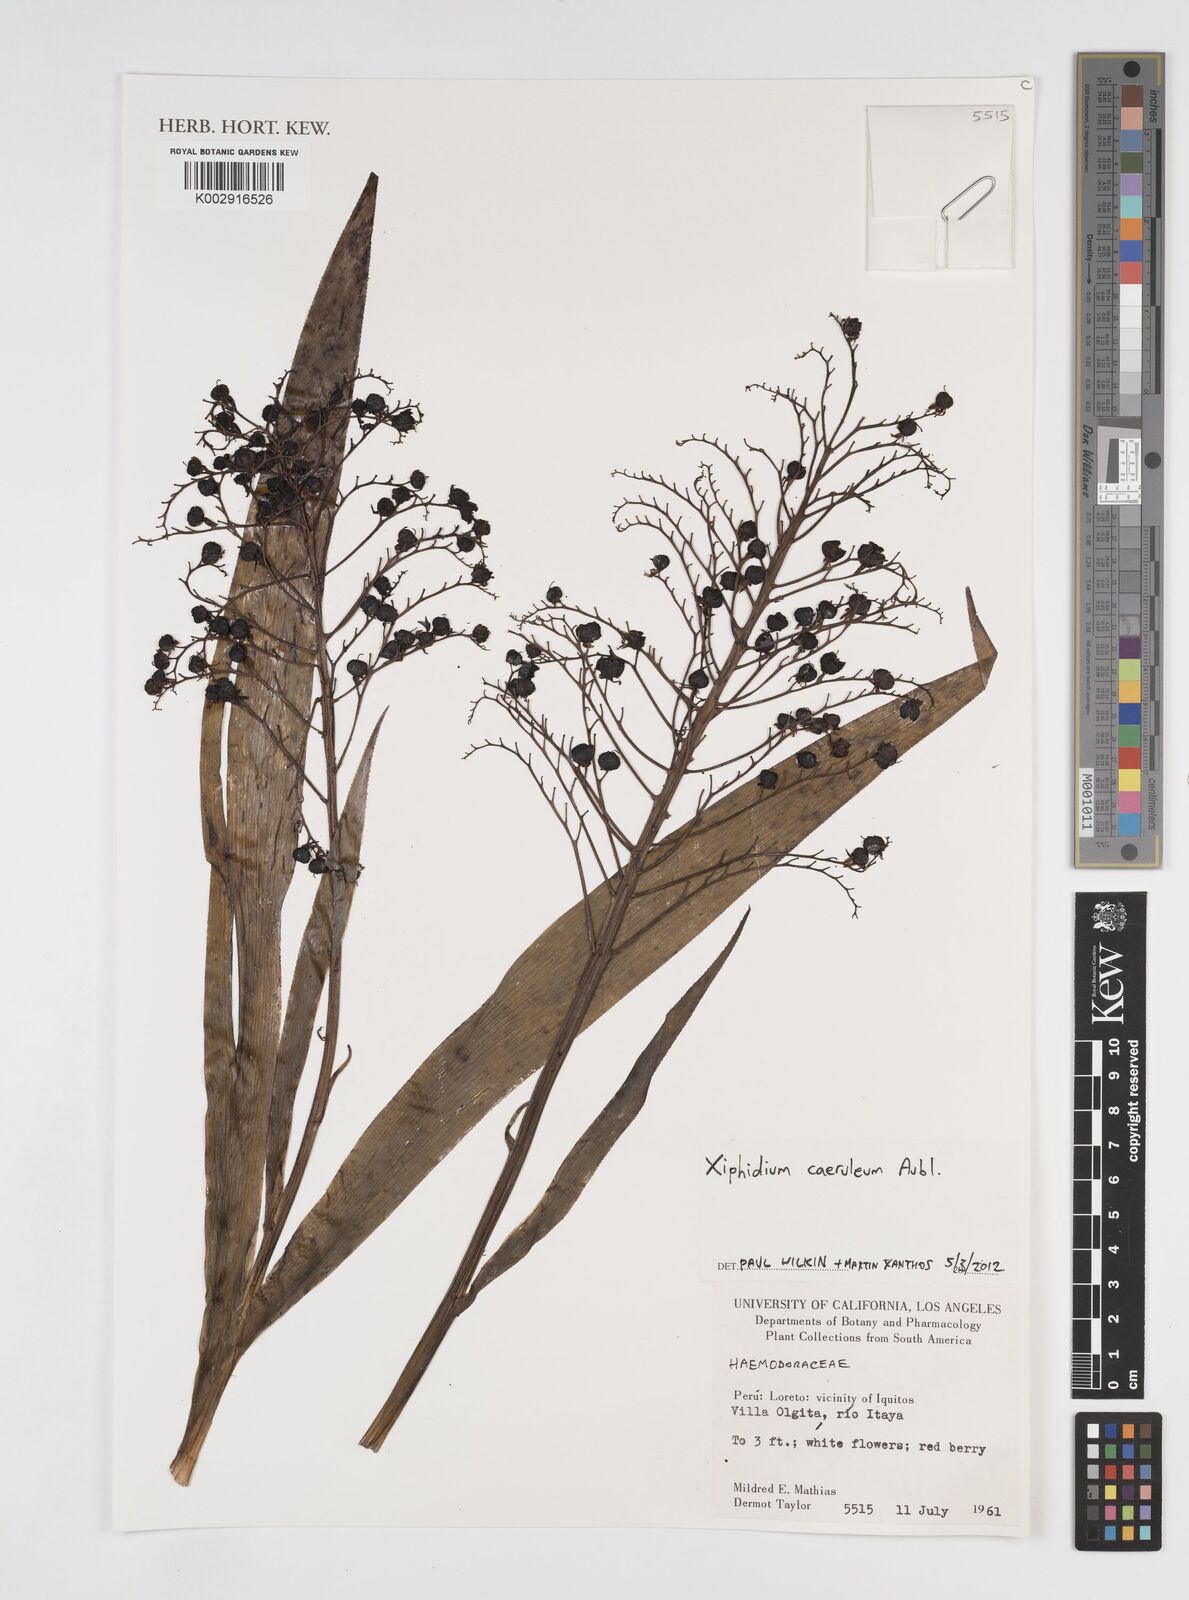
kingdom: Plantae
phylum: Tracheophyta
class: Liliopsida
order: Commelinales
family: Haemodoraceae
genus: Xiphidium
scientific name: Xiphidium caeruleum
